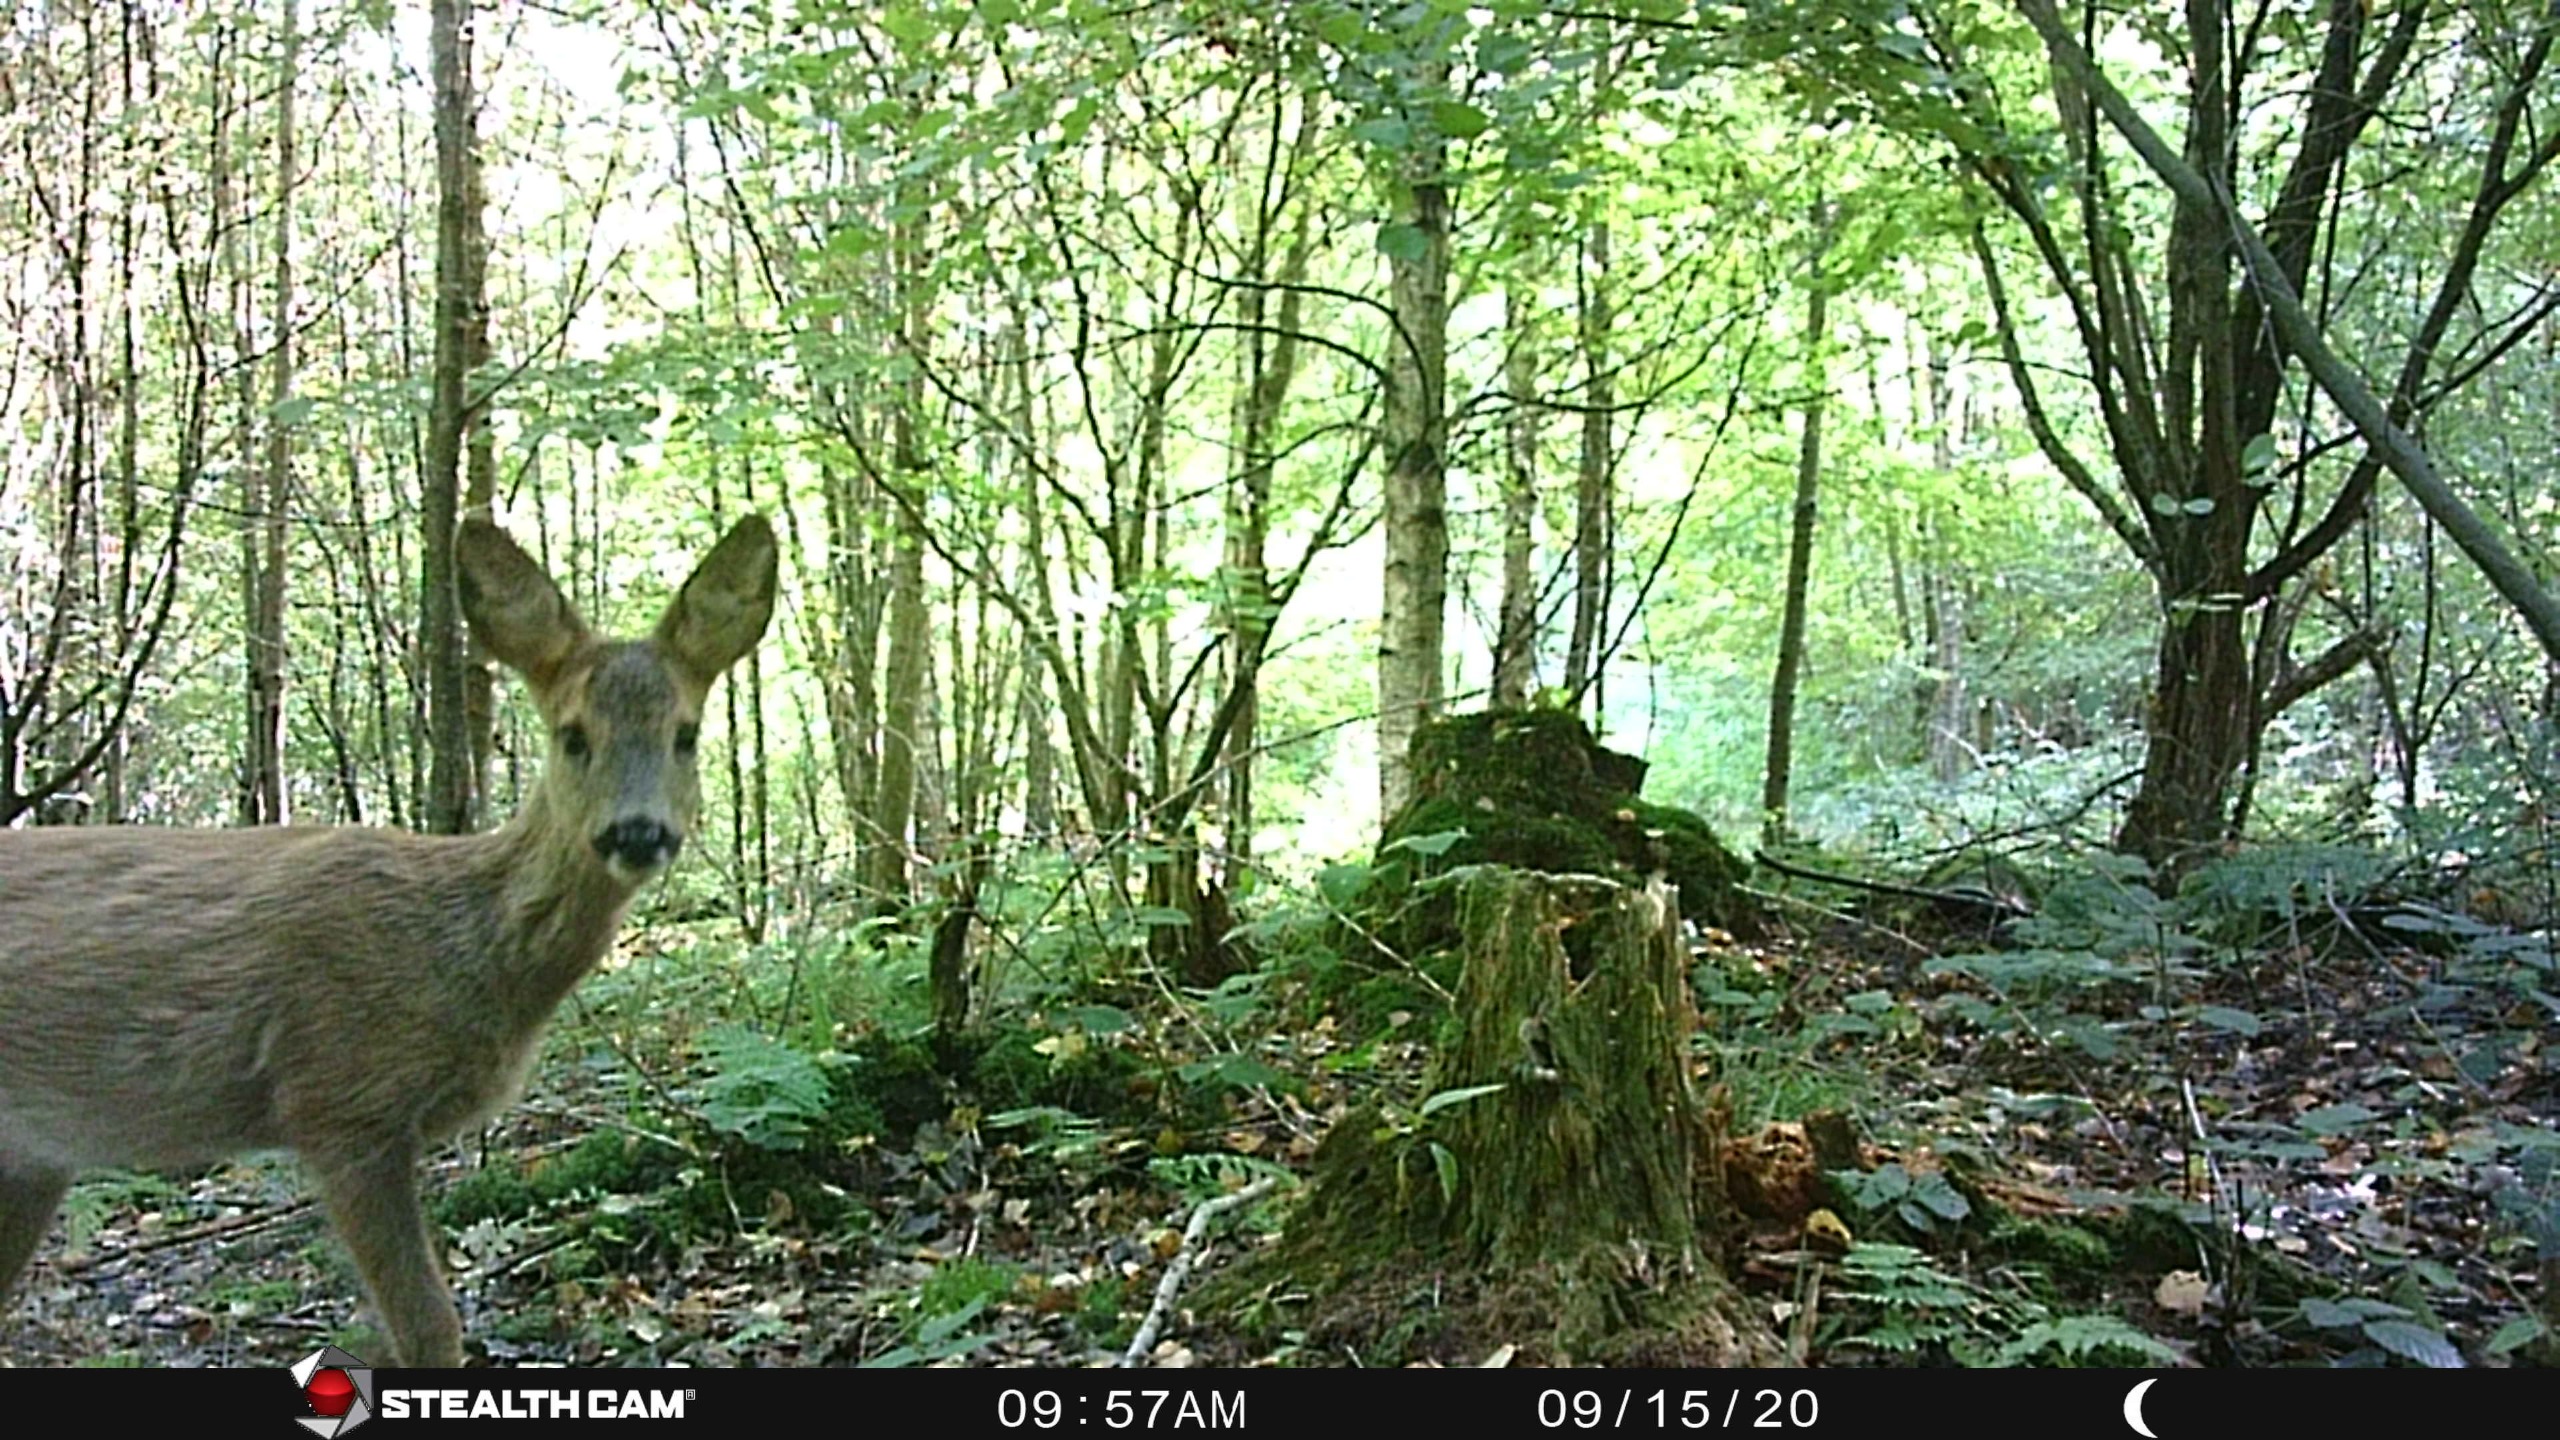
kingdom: Animalia
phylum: Chordata
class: Mammalia
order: Artiodactyla
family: Cervidae
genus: Capreolus
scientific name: Capreolus capreolus
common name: Rådyr
